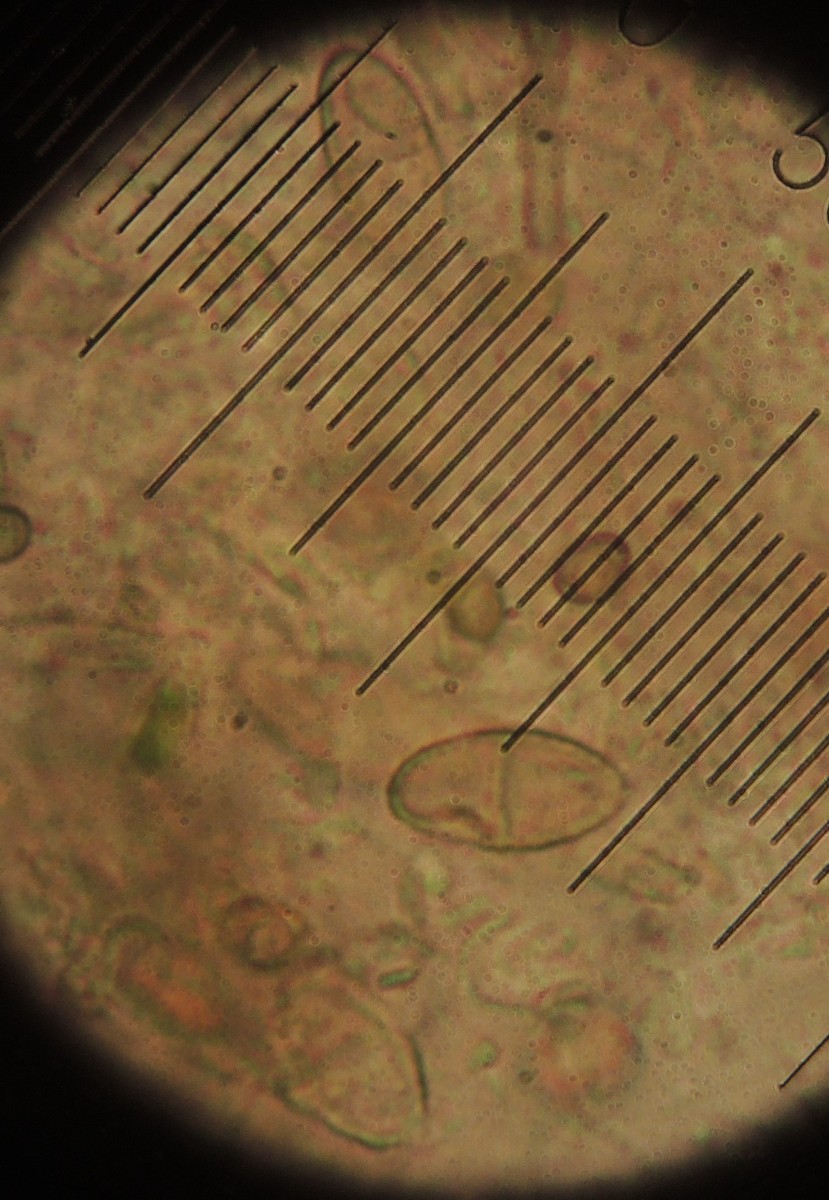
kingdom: Fungi
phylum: Ascomycota
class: Sordariomycetes
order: Hypocreales
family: Nectriaceae
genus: Dialonectria
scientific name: Dialonectria diatrypicola
